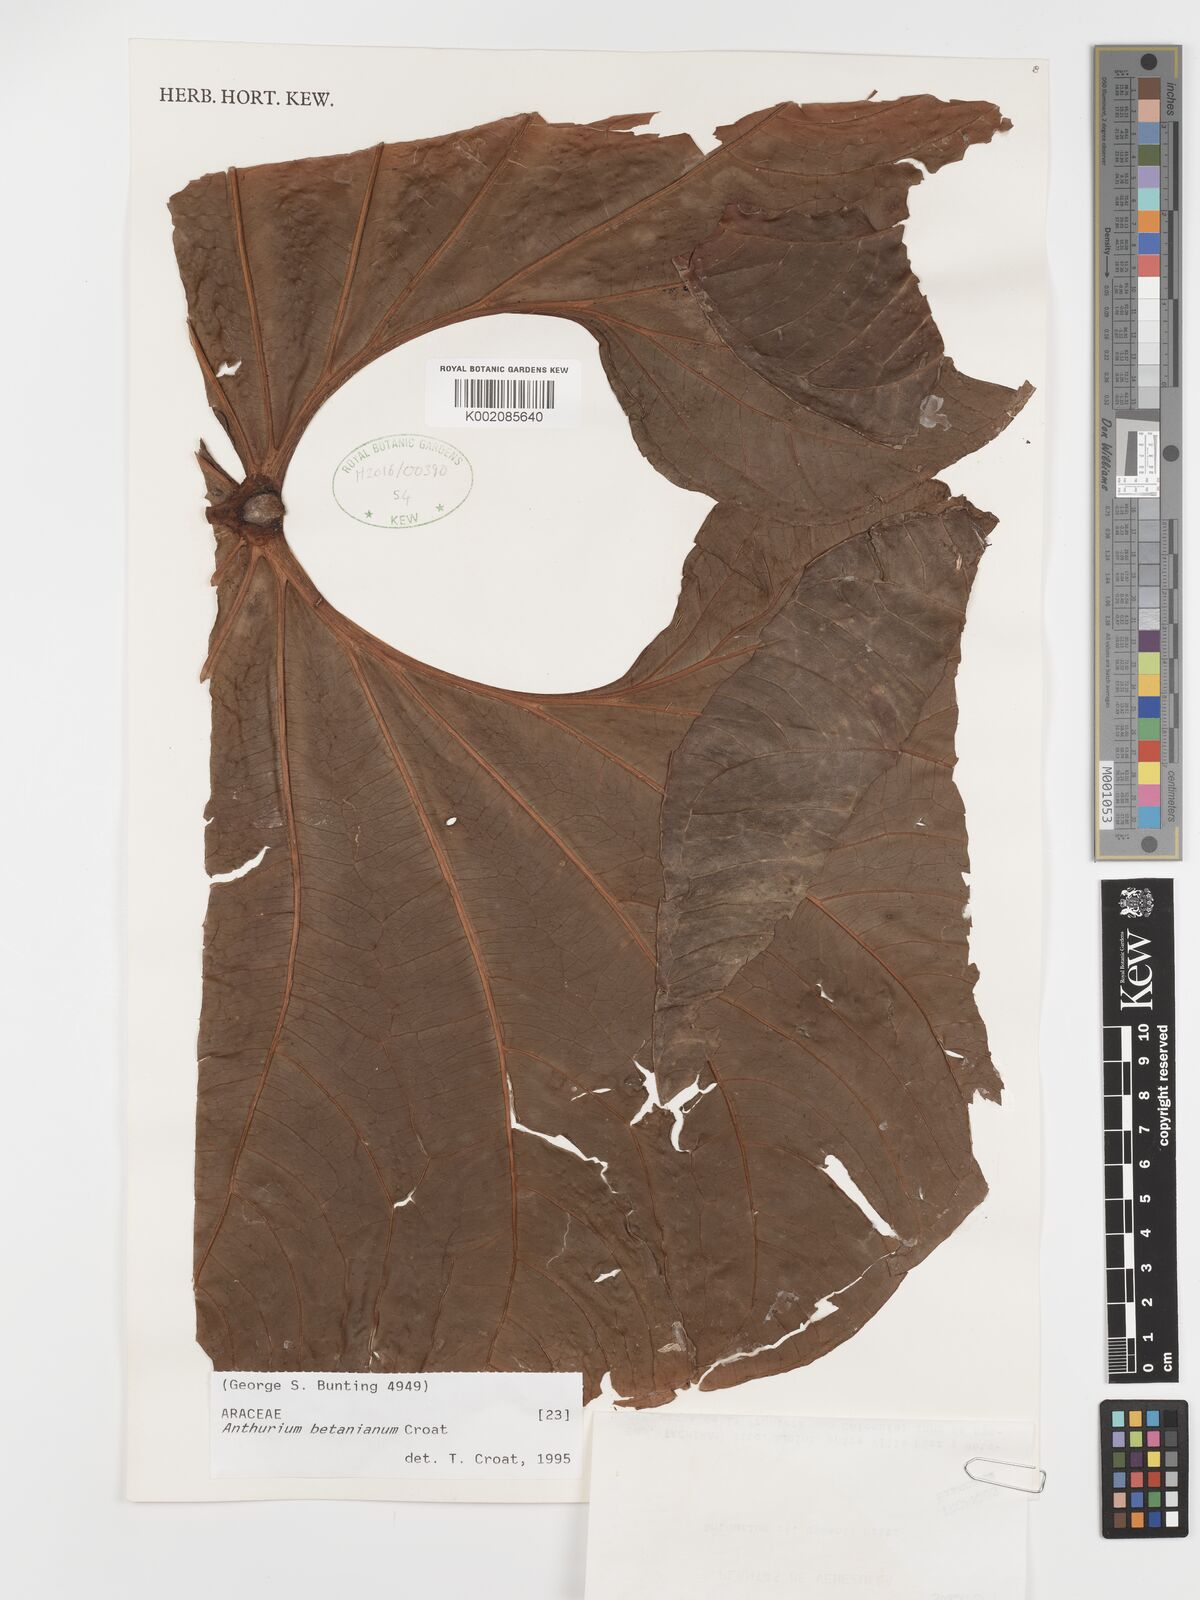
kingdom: Plantae
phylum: Tracheophyta
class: Liliopsida
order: Alismatales
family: Araceae
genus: Anthurium
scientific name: Anthurium betanianum
